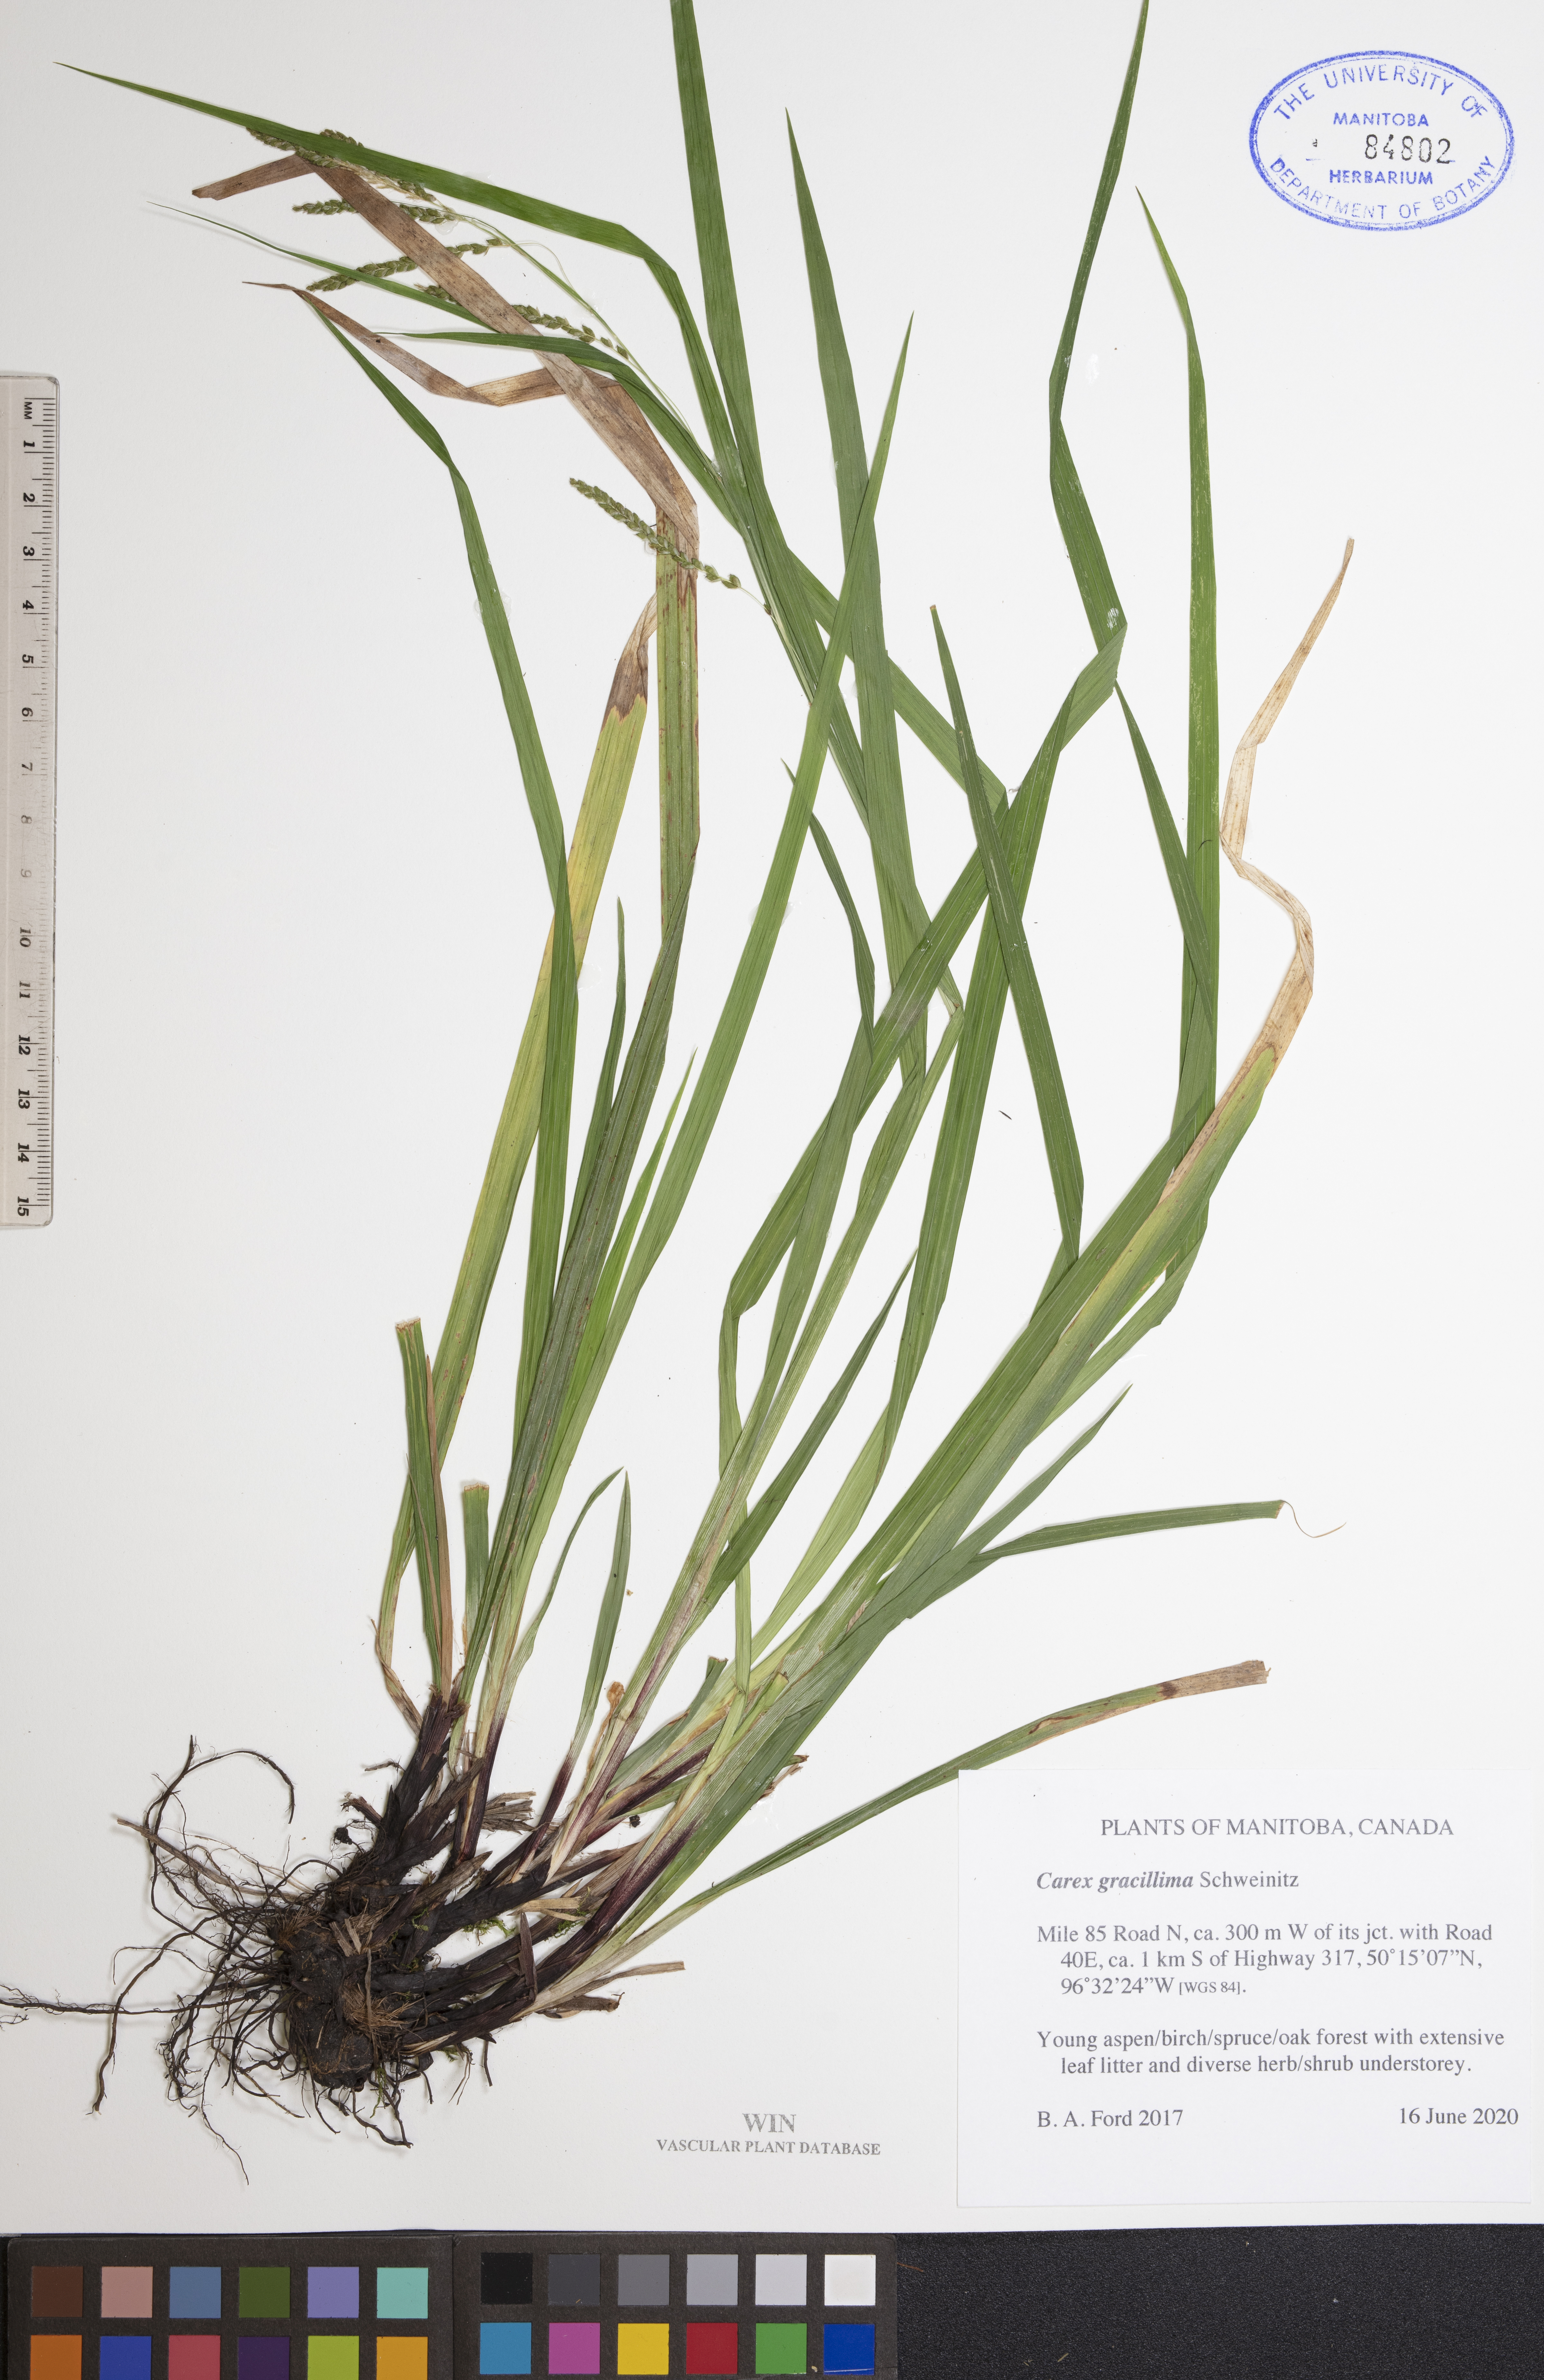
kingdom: Plantae
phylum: Tracheophyta
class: Liliopsida
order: Poales
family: Cyperaceae
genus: Carex
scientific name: Carex gracillima
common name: Graceful sedge
